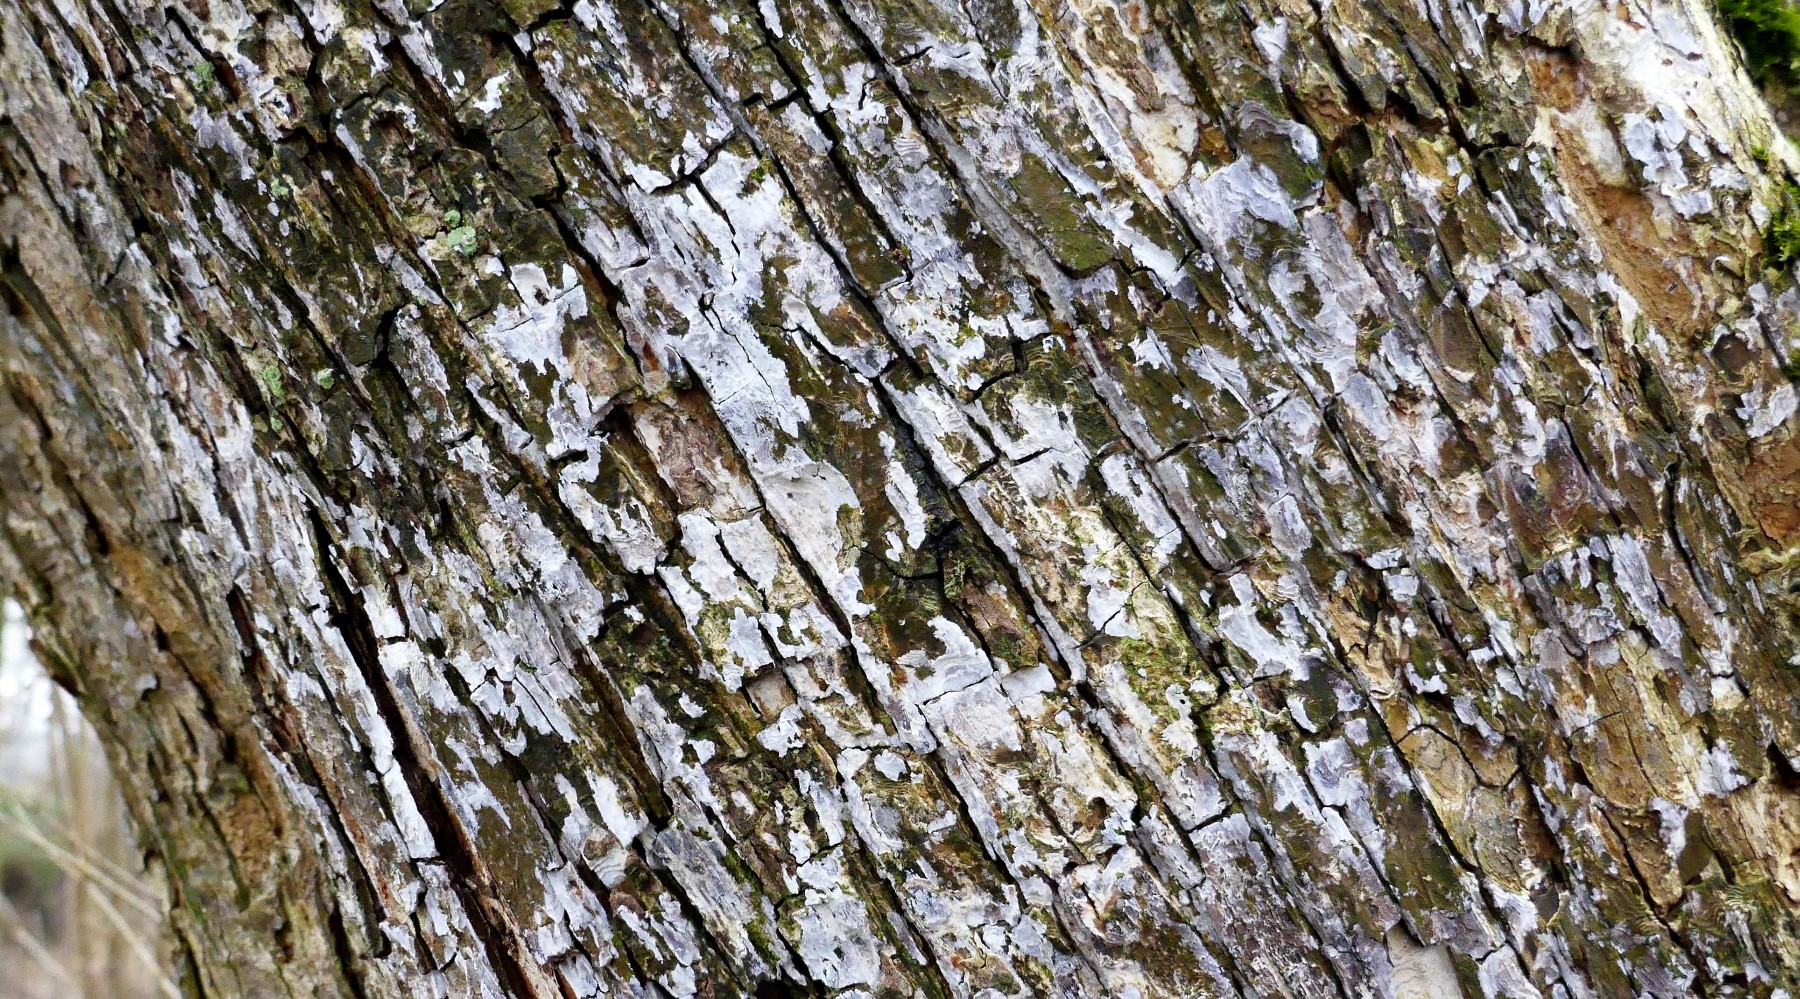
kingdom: Fungi
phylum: Basidiomycota
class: Agaricomycetes
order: Agaricales
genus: Dendrothele
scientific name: Dendrothele acerina
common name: navr-kalkplet
